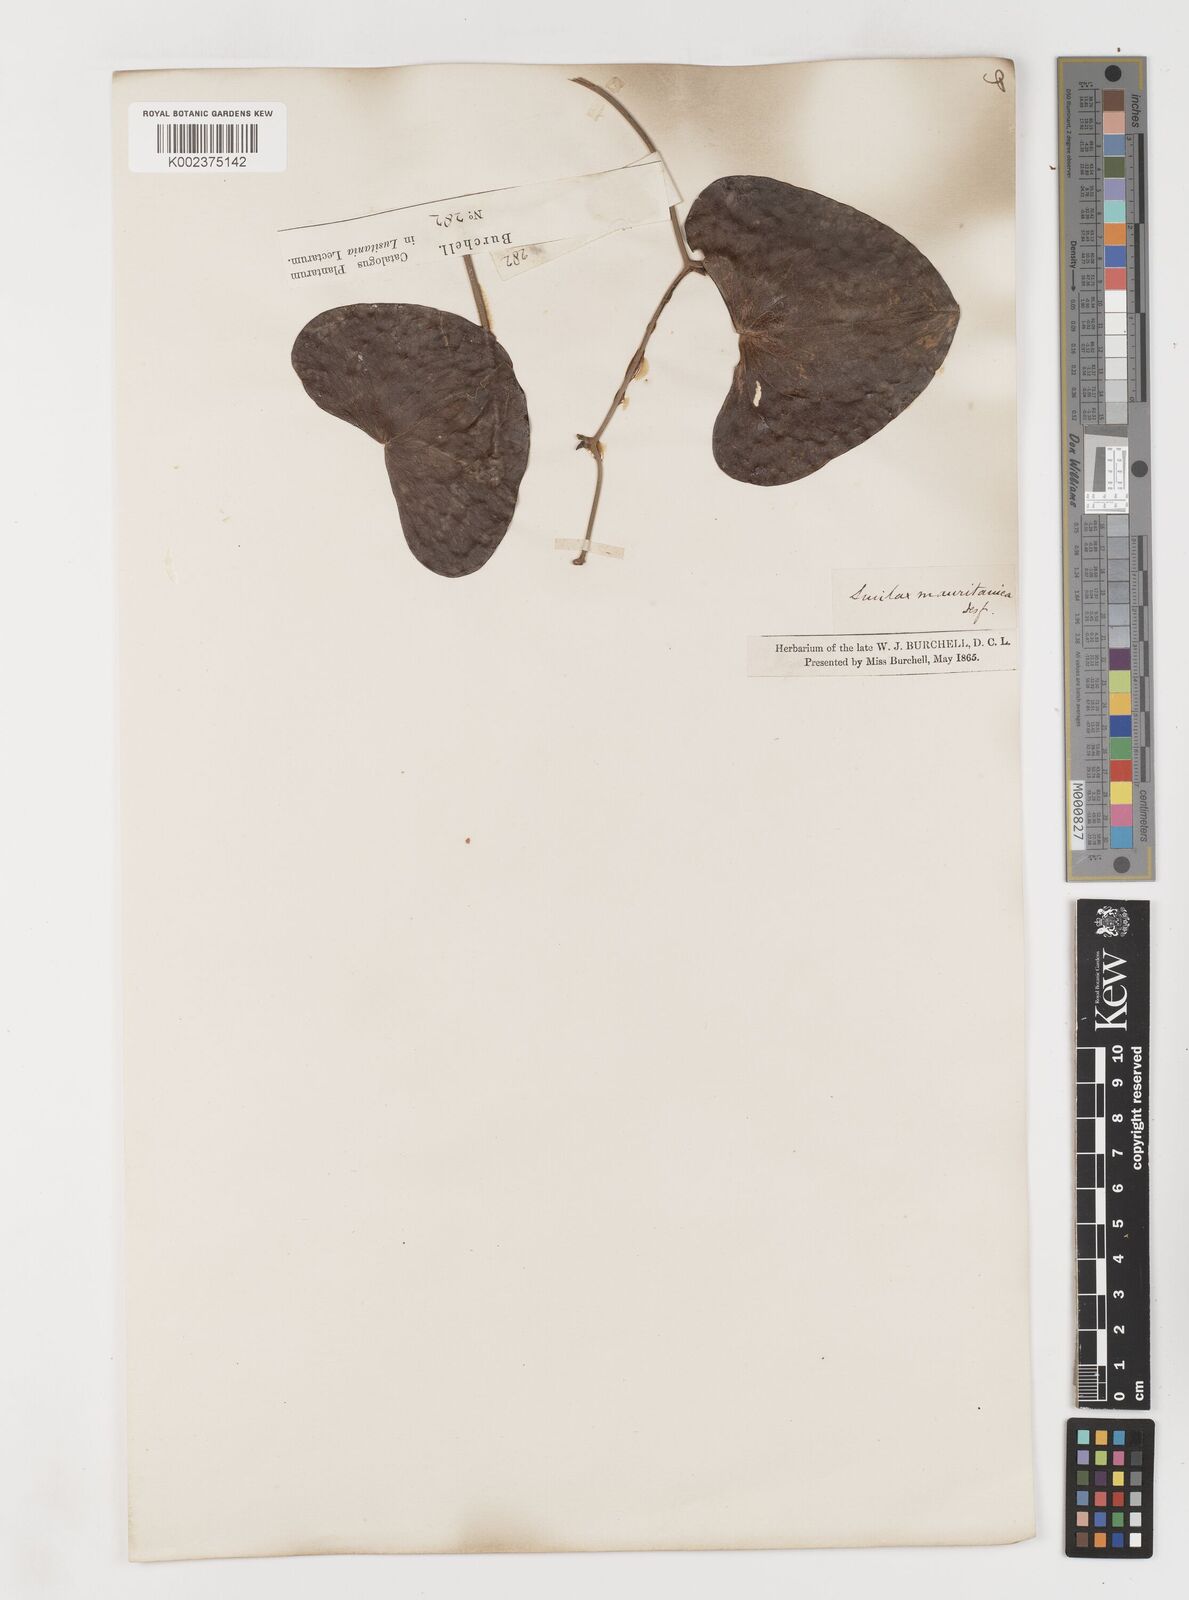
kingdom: Plantae
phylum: Tracheophyta
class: Liliopsida
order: Liliales
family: Smilacaceae
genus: Smilax
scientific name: Smilax aspera
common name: Common smilax
